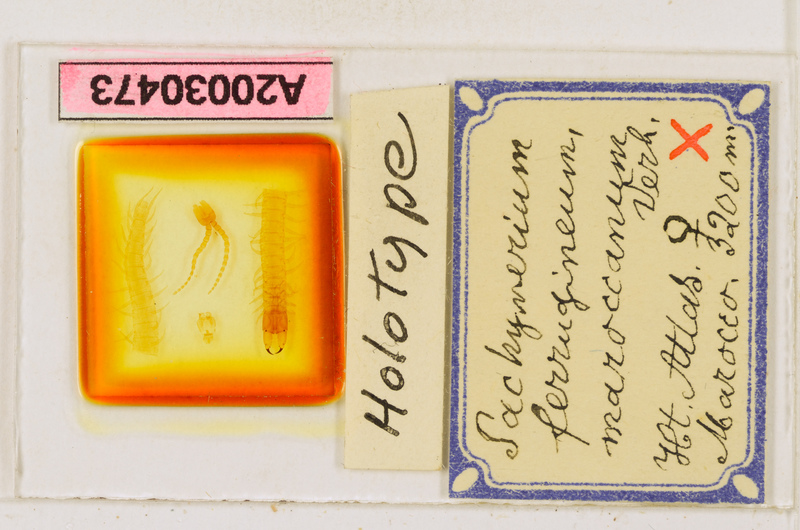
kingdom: Animalia
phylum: Arthropoda
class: Chilopoda
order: Geophilomorpha
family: Geophilidae
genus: Pachymerium
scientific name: Pachymerium ferrugineum
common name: Centipede
